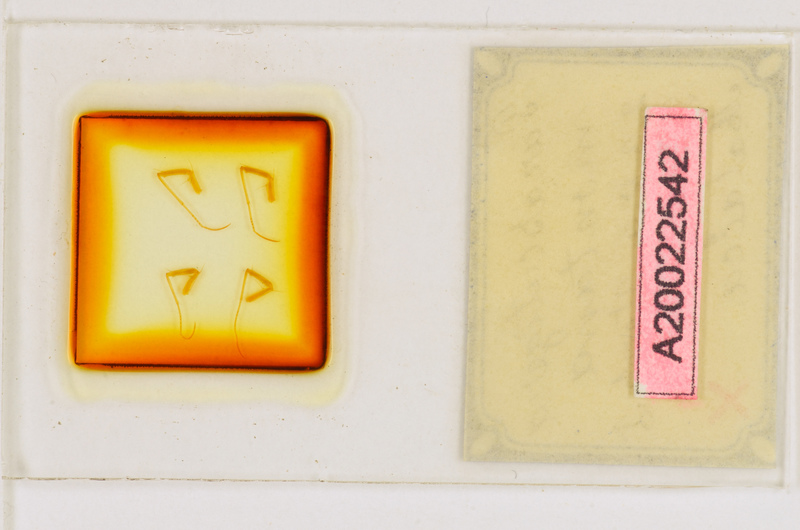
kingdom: Animalia
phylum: Arthropoda
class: Chilopoda
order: Scutigeromorpha
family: Scutigeridae
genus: Parascutigera
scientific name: Parascutigera montana
